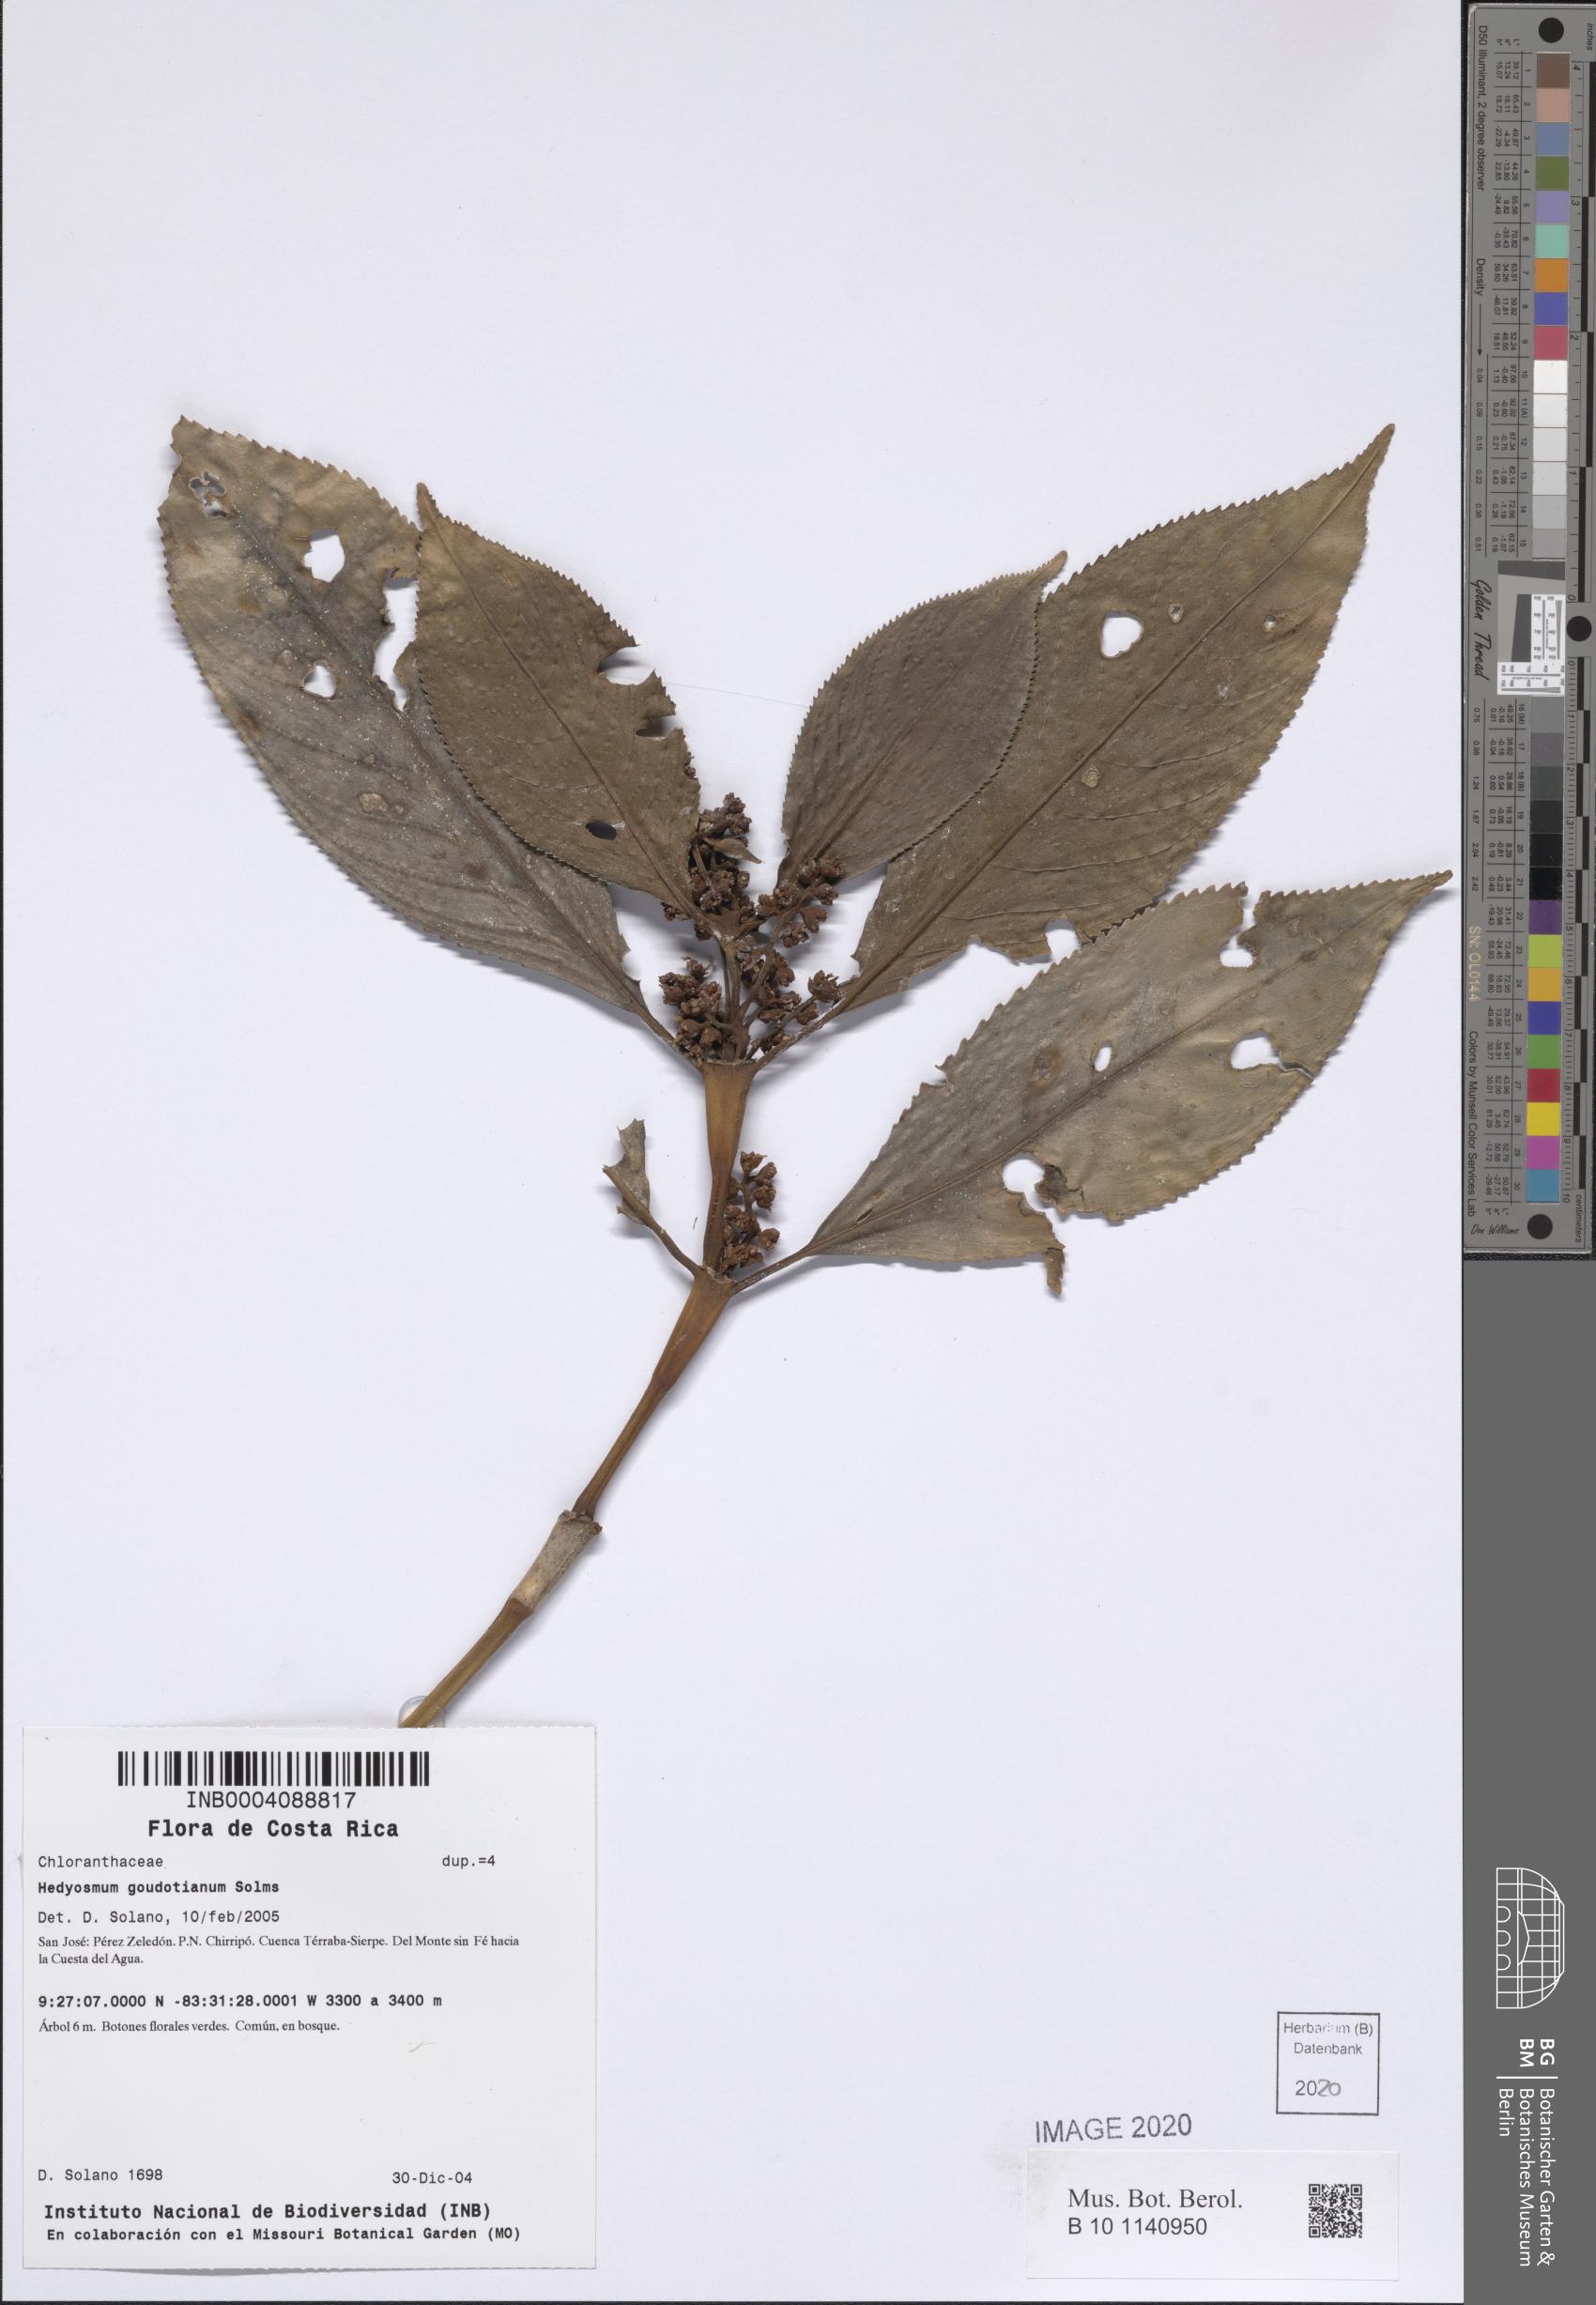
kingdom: Plantae
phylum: Tracheophyta
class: Magnoliopsida
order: Chloranthales
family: Chloranthaceae
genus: Hedyosmum
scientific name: Hedyosmum goudotianum
